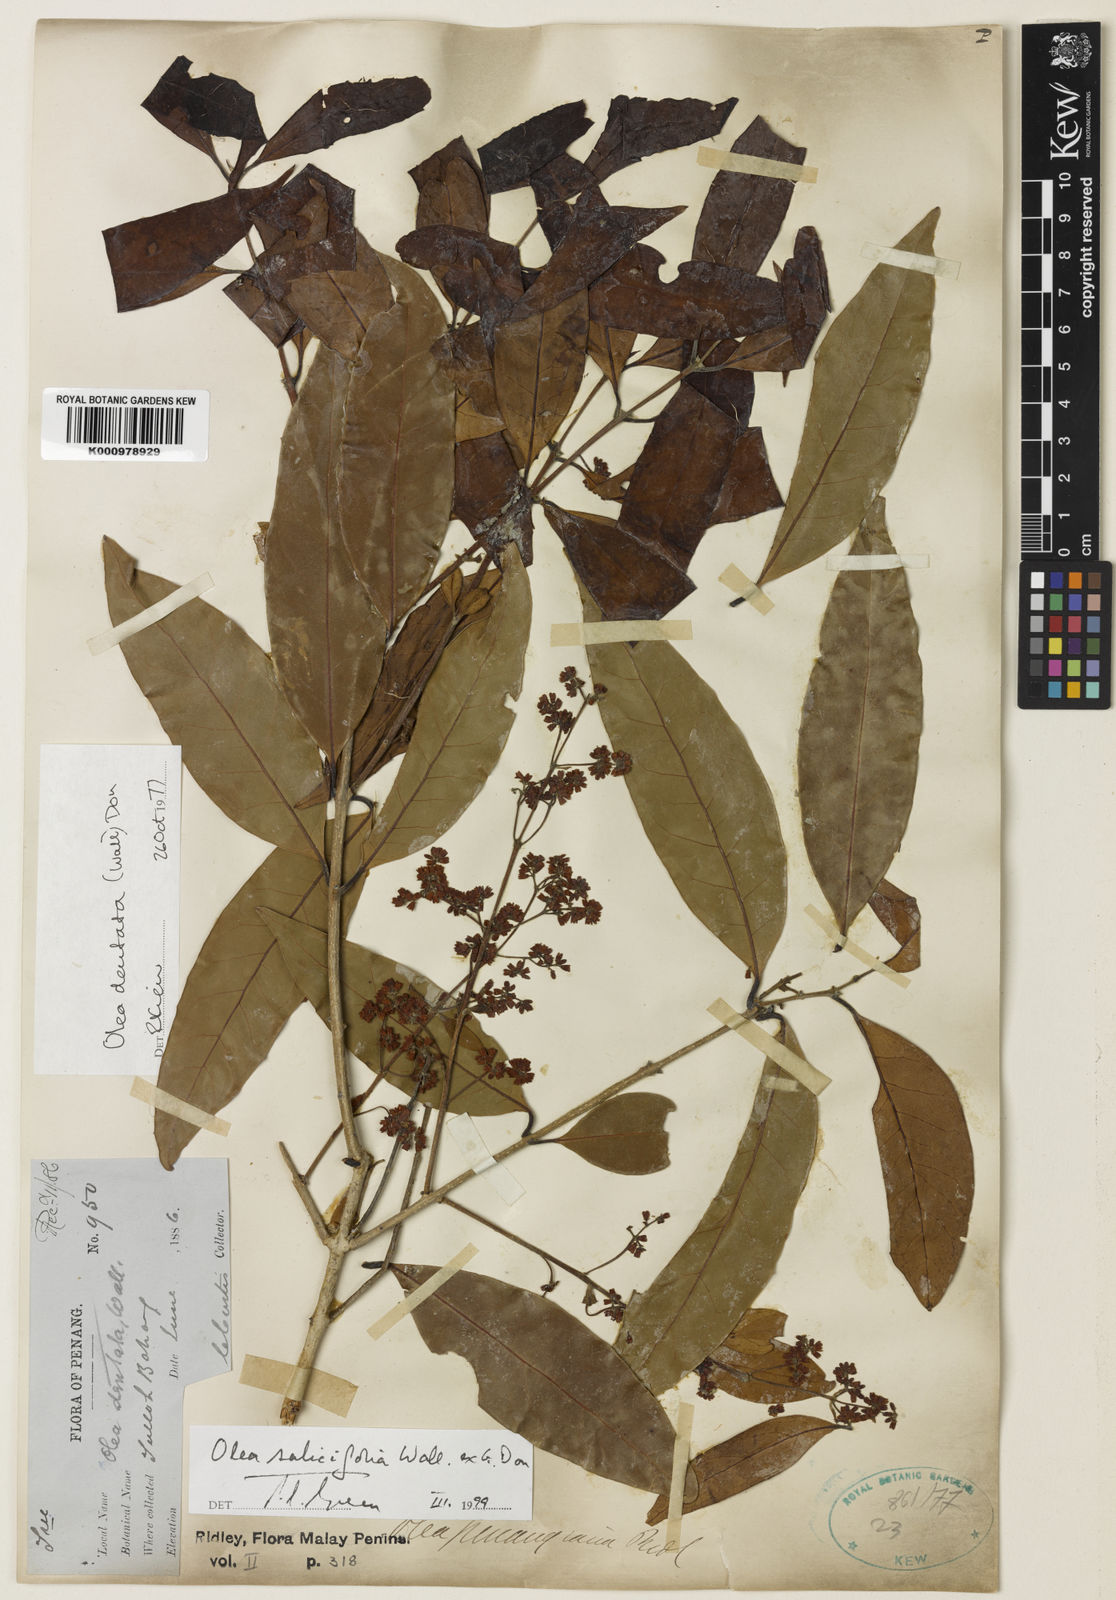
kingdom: Plantae
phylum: Tracheophyta
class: Magnoliopsida
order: Lamiales
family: Oleaceae
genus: Tetrapilus
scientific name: Tetrapilus salicifolius
